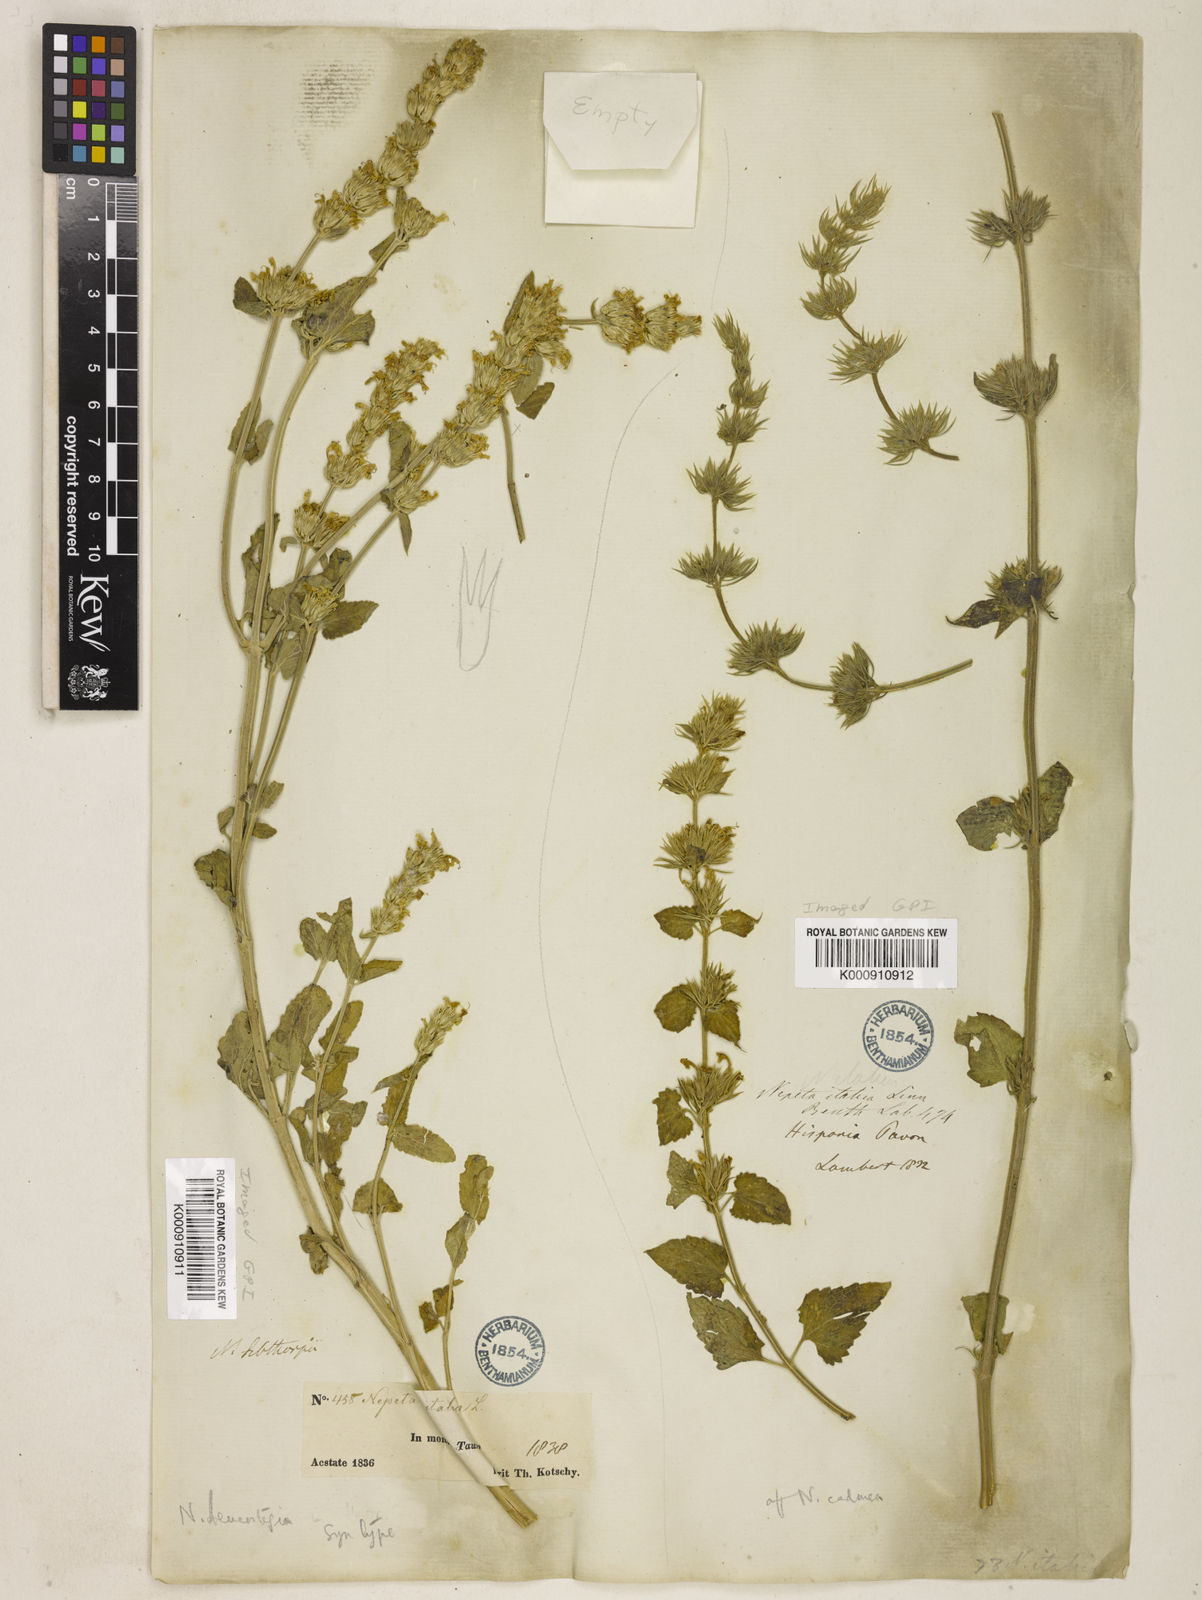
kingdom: Plantae
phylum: Tracheophyta
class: Magnoliopsida
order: Lamiales
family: Lamiaceae
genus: Nepeta
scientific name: Nepeta italica
